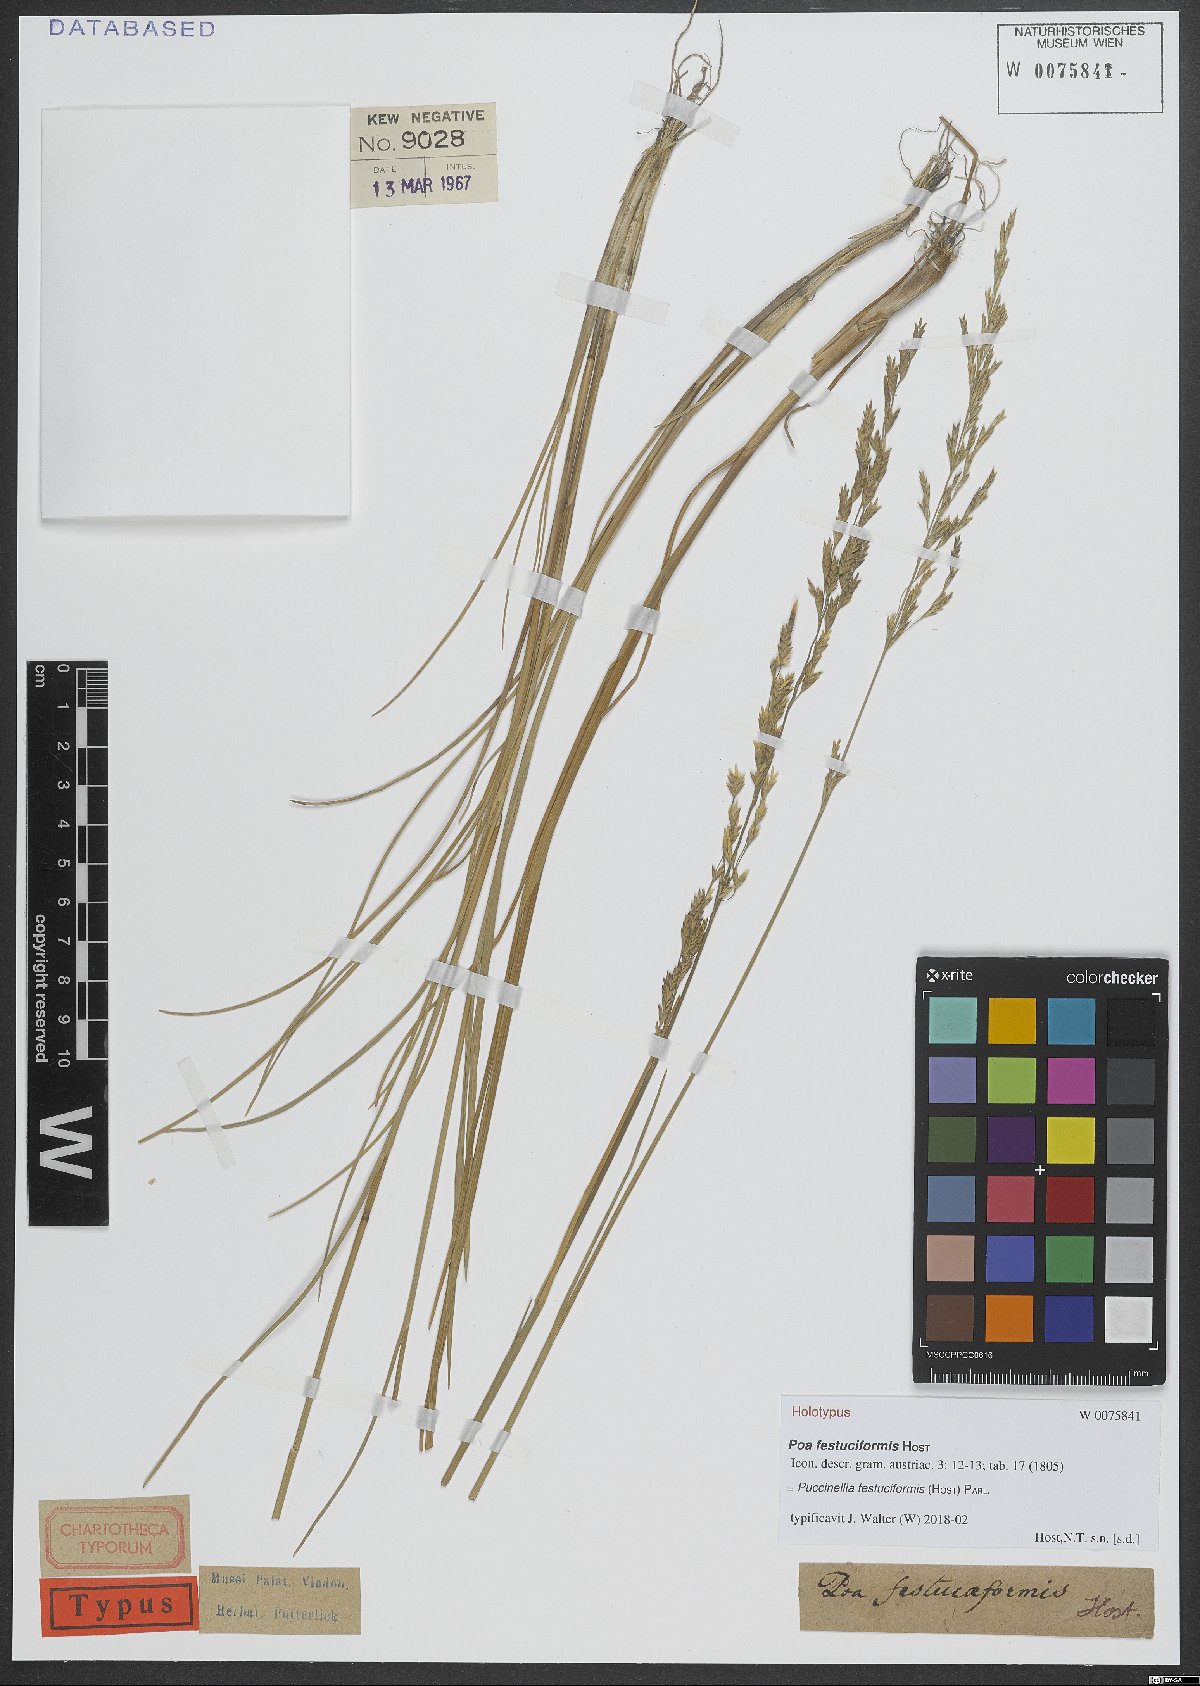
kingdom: Plantae
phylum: Tracheophyta
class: Liliopsida
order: Poales
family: Poaceae
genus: Puccinellia
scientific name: Puccinellia festuciformis
